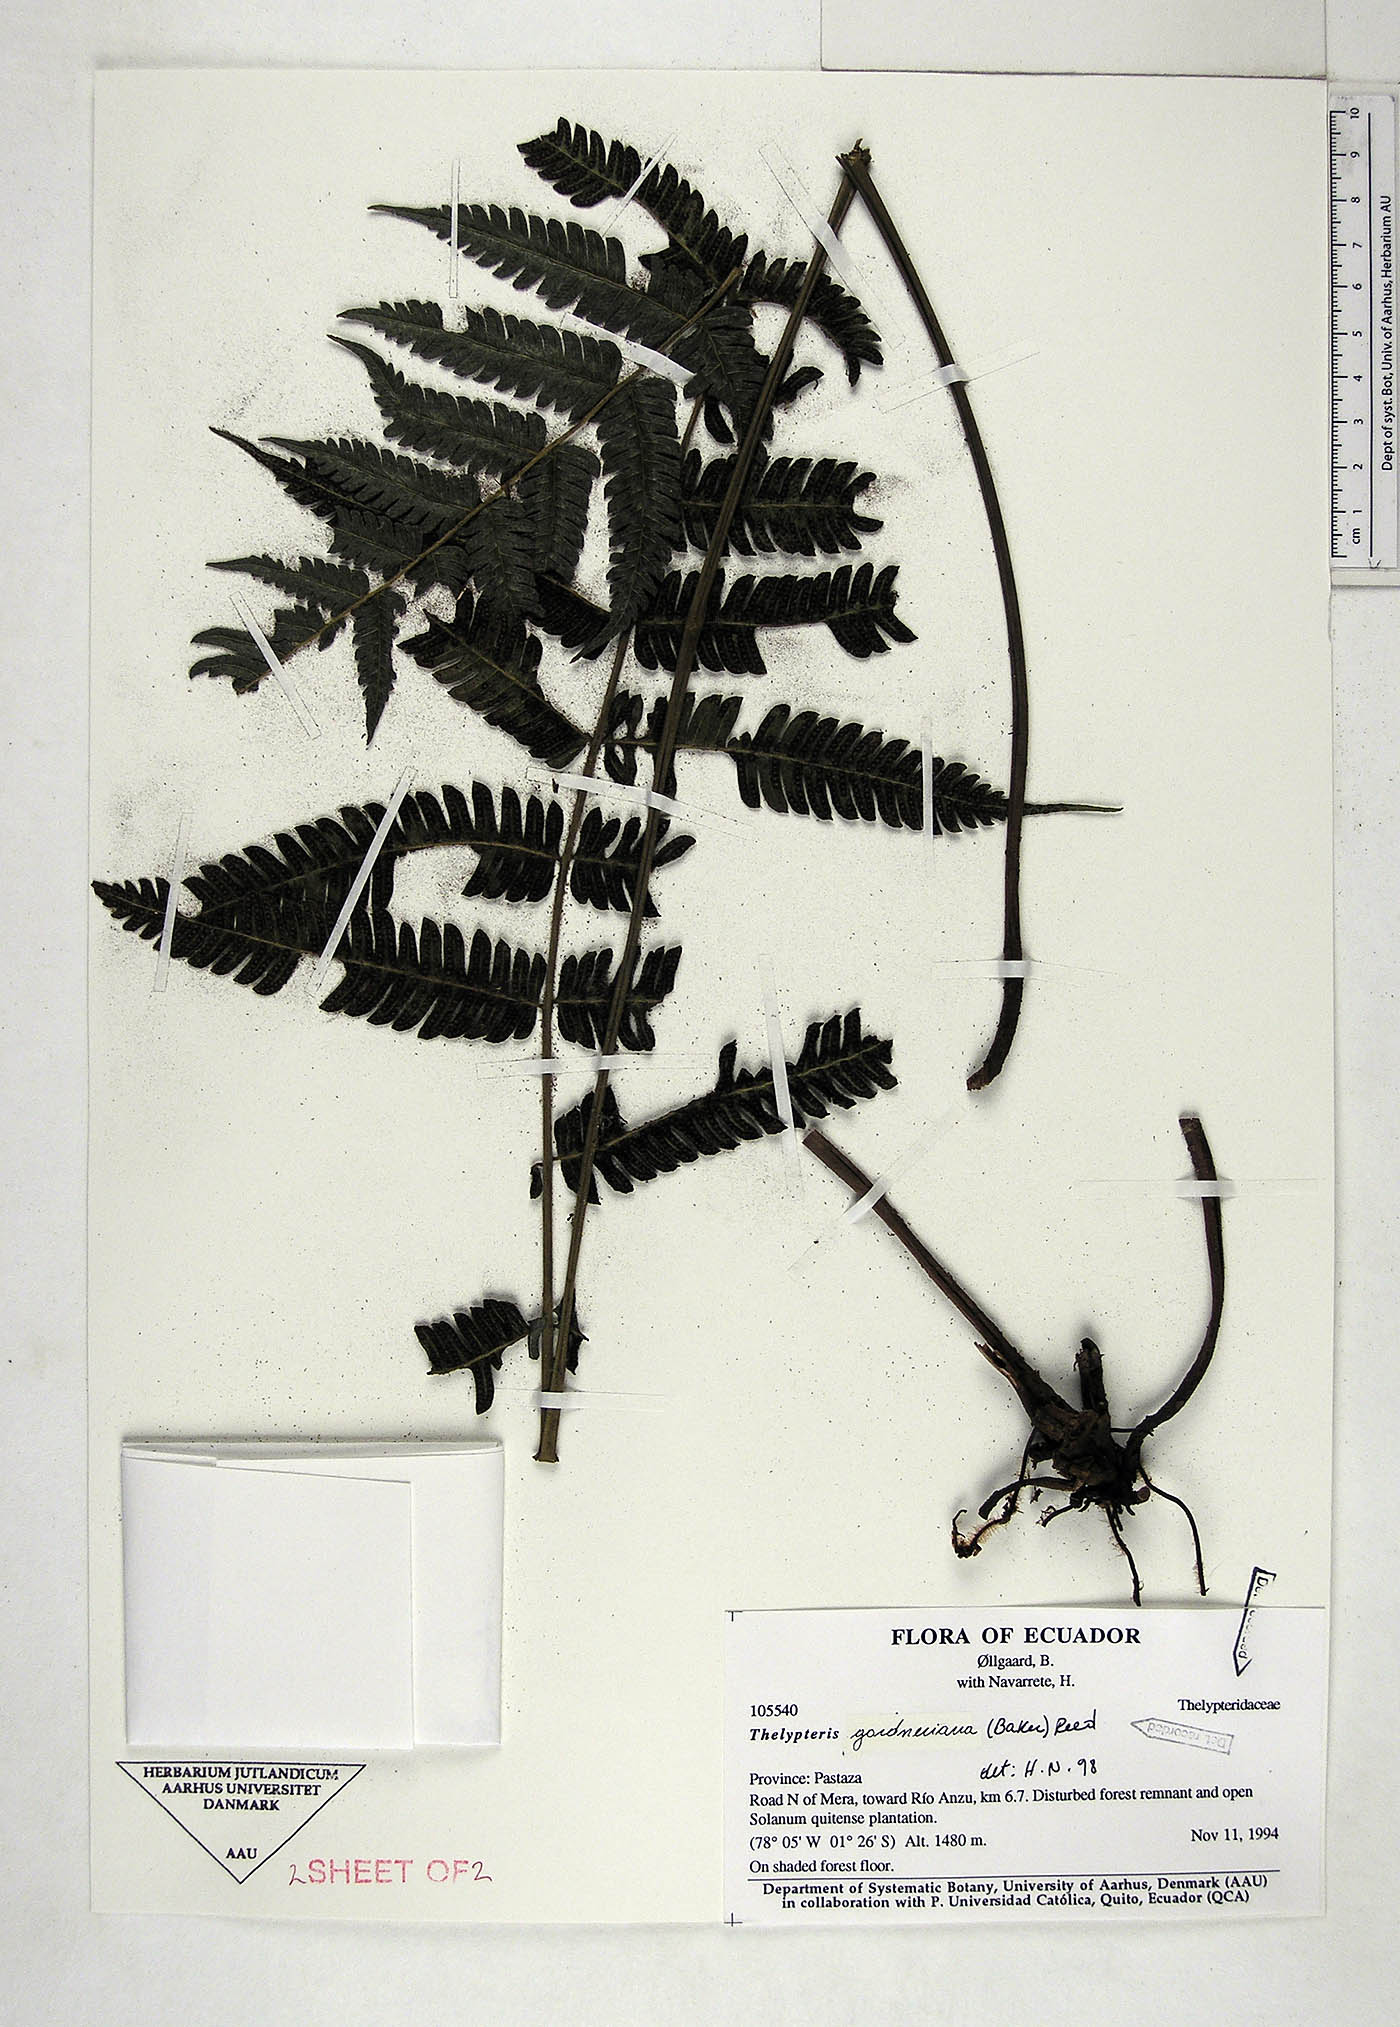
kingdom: Plantae
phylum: Tracheophyta
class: Polypodiopsida
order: Polypodiales
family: Thelypteridaceae
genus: Steiropteris
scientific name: Steiropteris gardneriana
